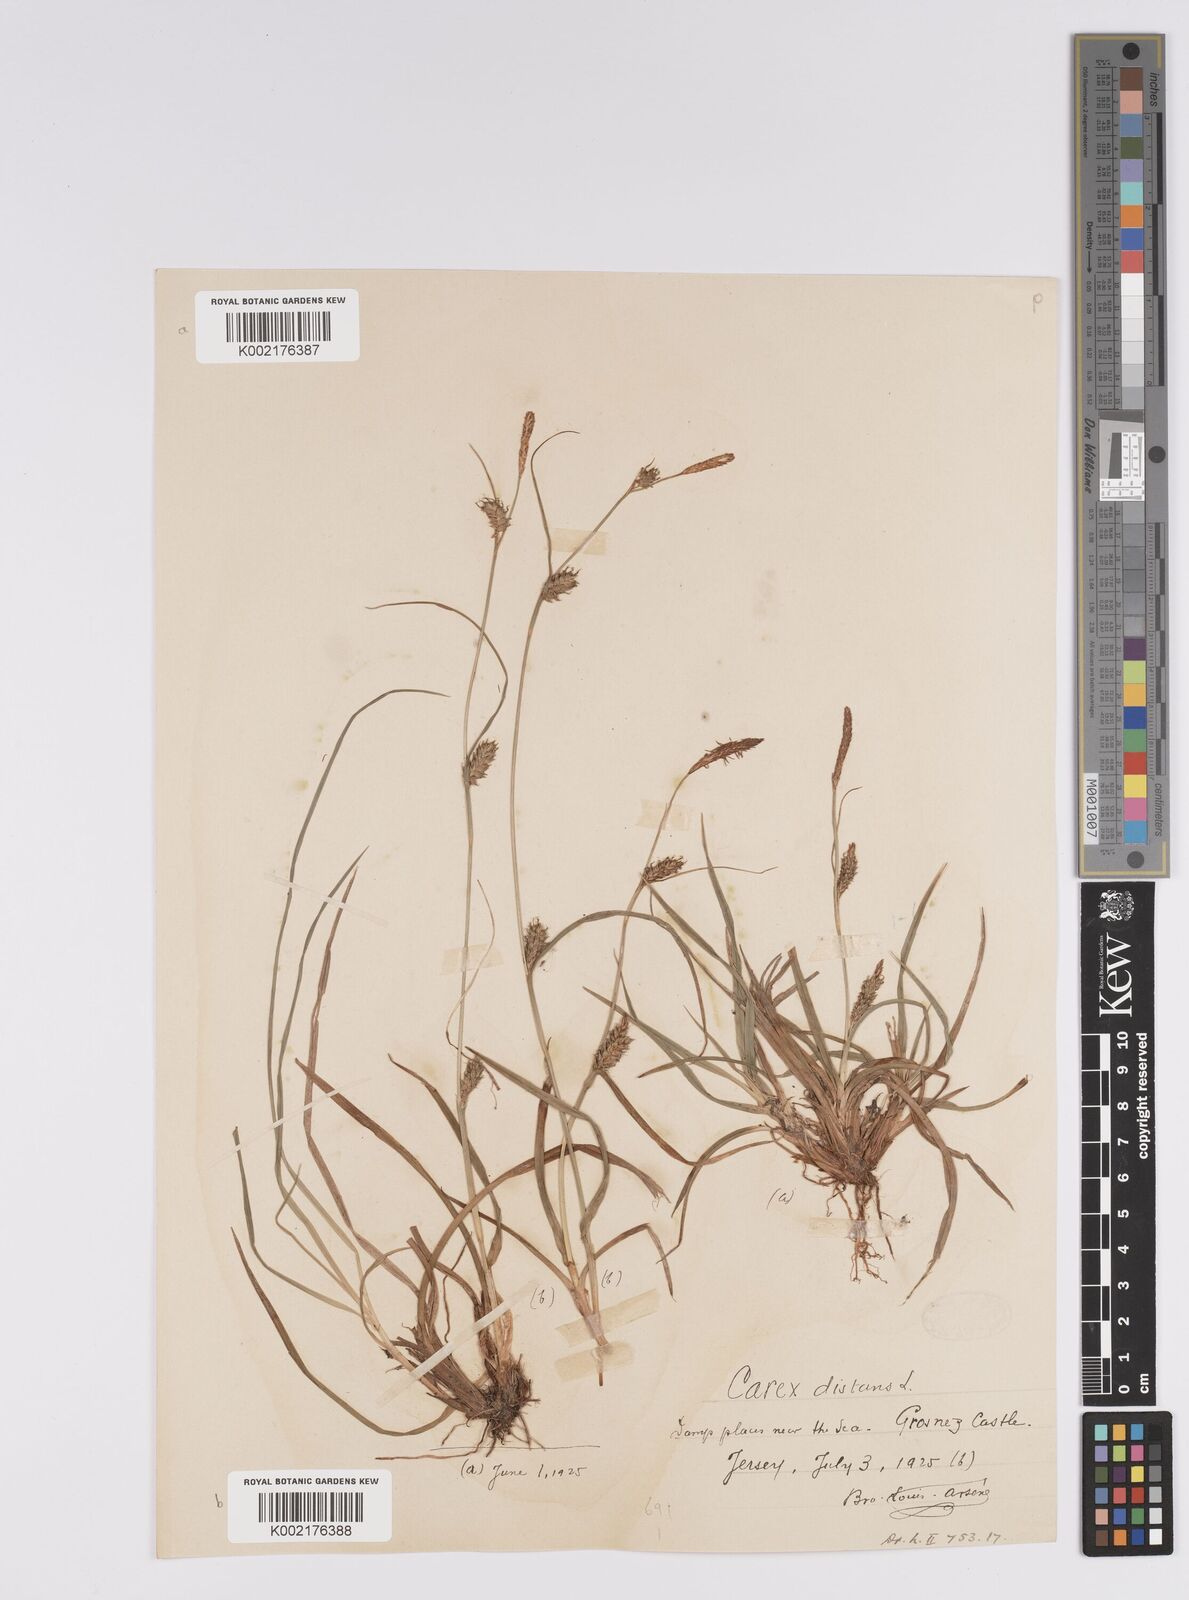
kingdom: Plantae
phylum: Tracheophyta
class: Liliopsida
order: Poales
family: Cyperaceae
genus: Carex
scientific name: Carex distans
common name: Distant sedge
